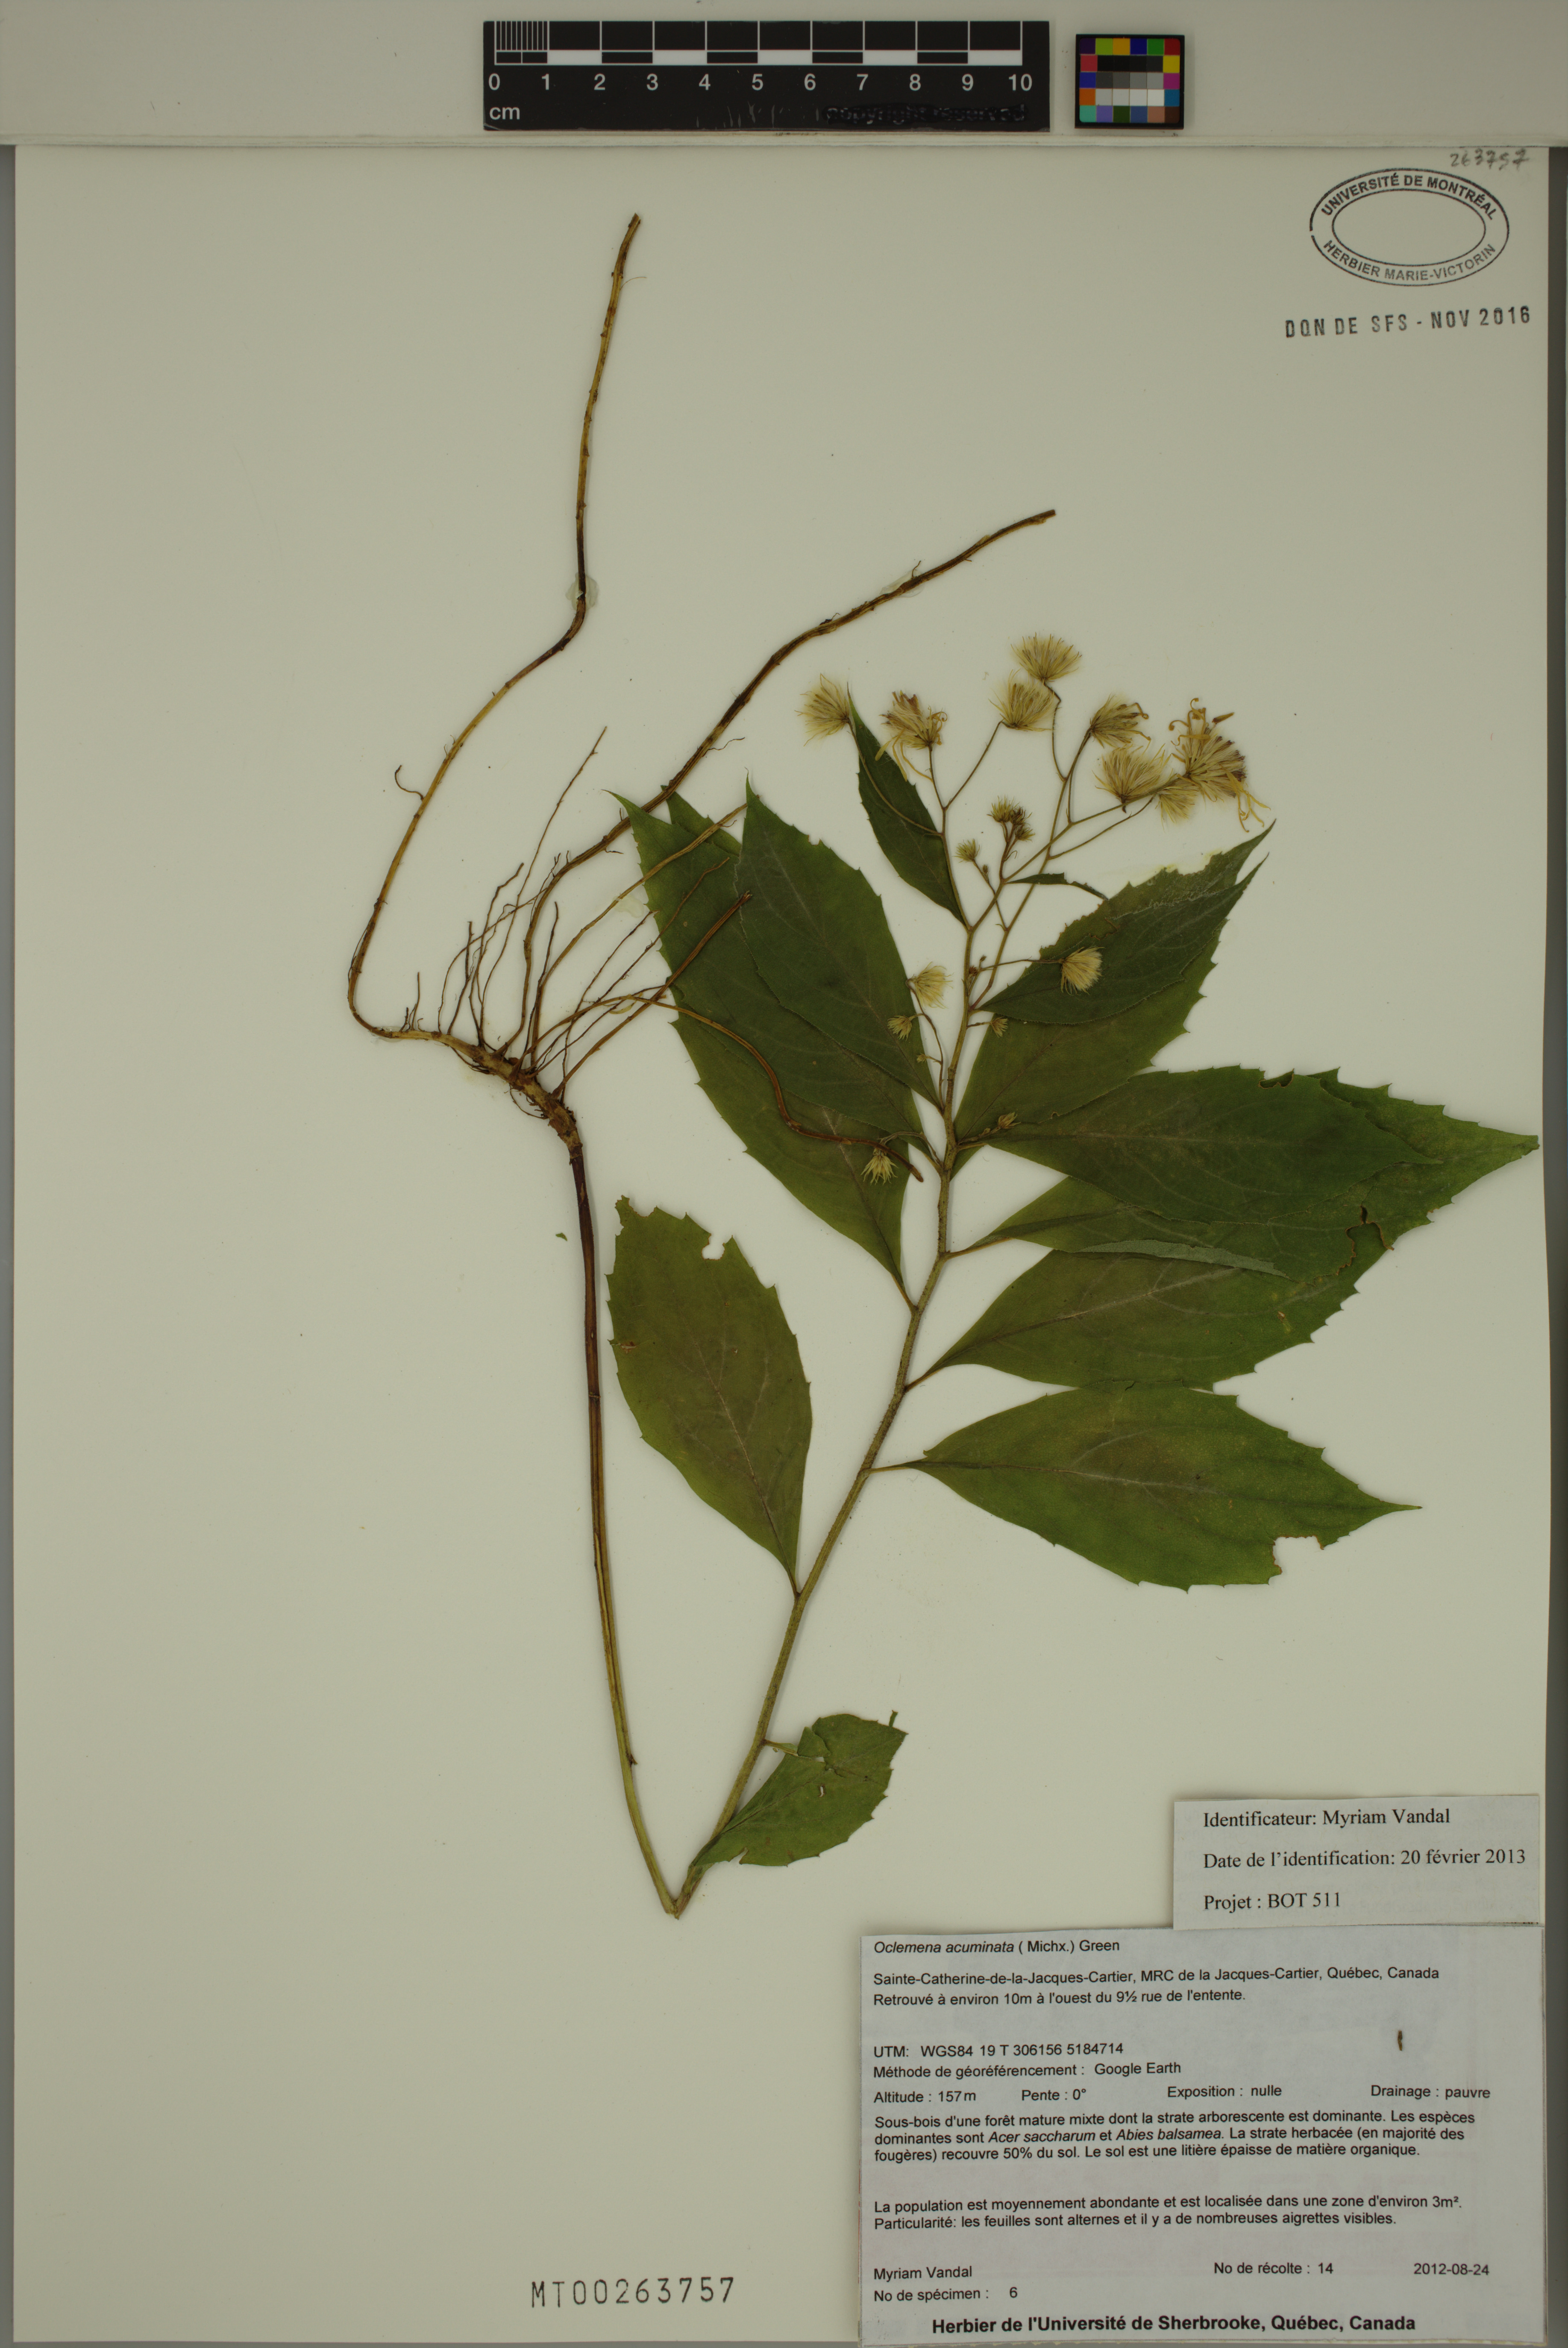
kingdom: Plantae
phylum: Tracheophyta
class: Magnoliopsida
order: Asterales
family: Asteraceae
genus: Oclemena
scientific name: Oclemena acuminata
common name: Mountain aster
